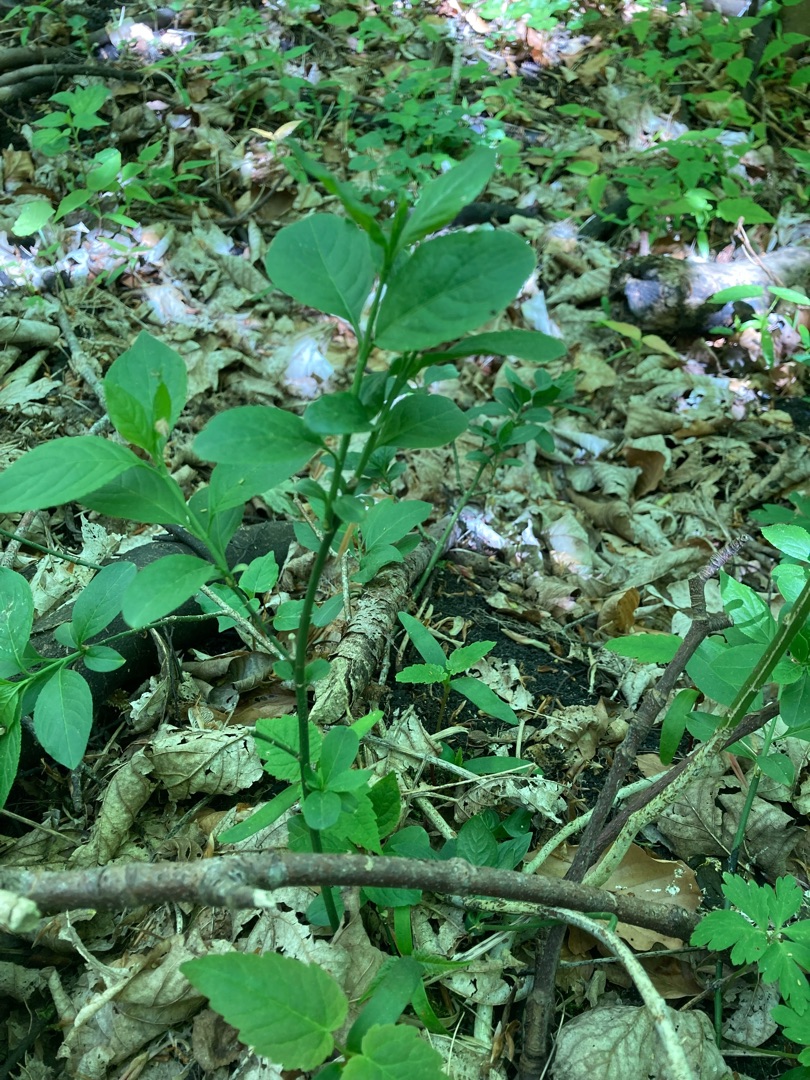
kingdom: Plantae
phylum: Tracheophyta
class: Magnoliopsida
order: Celastrales
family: Celastraceae
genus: Euonymus
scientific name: Euonymus europaeus
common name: Benved
